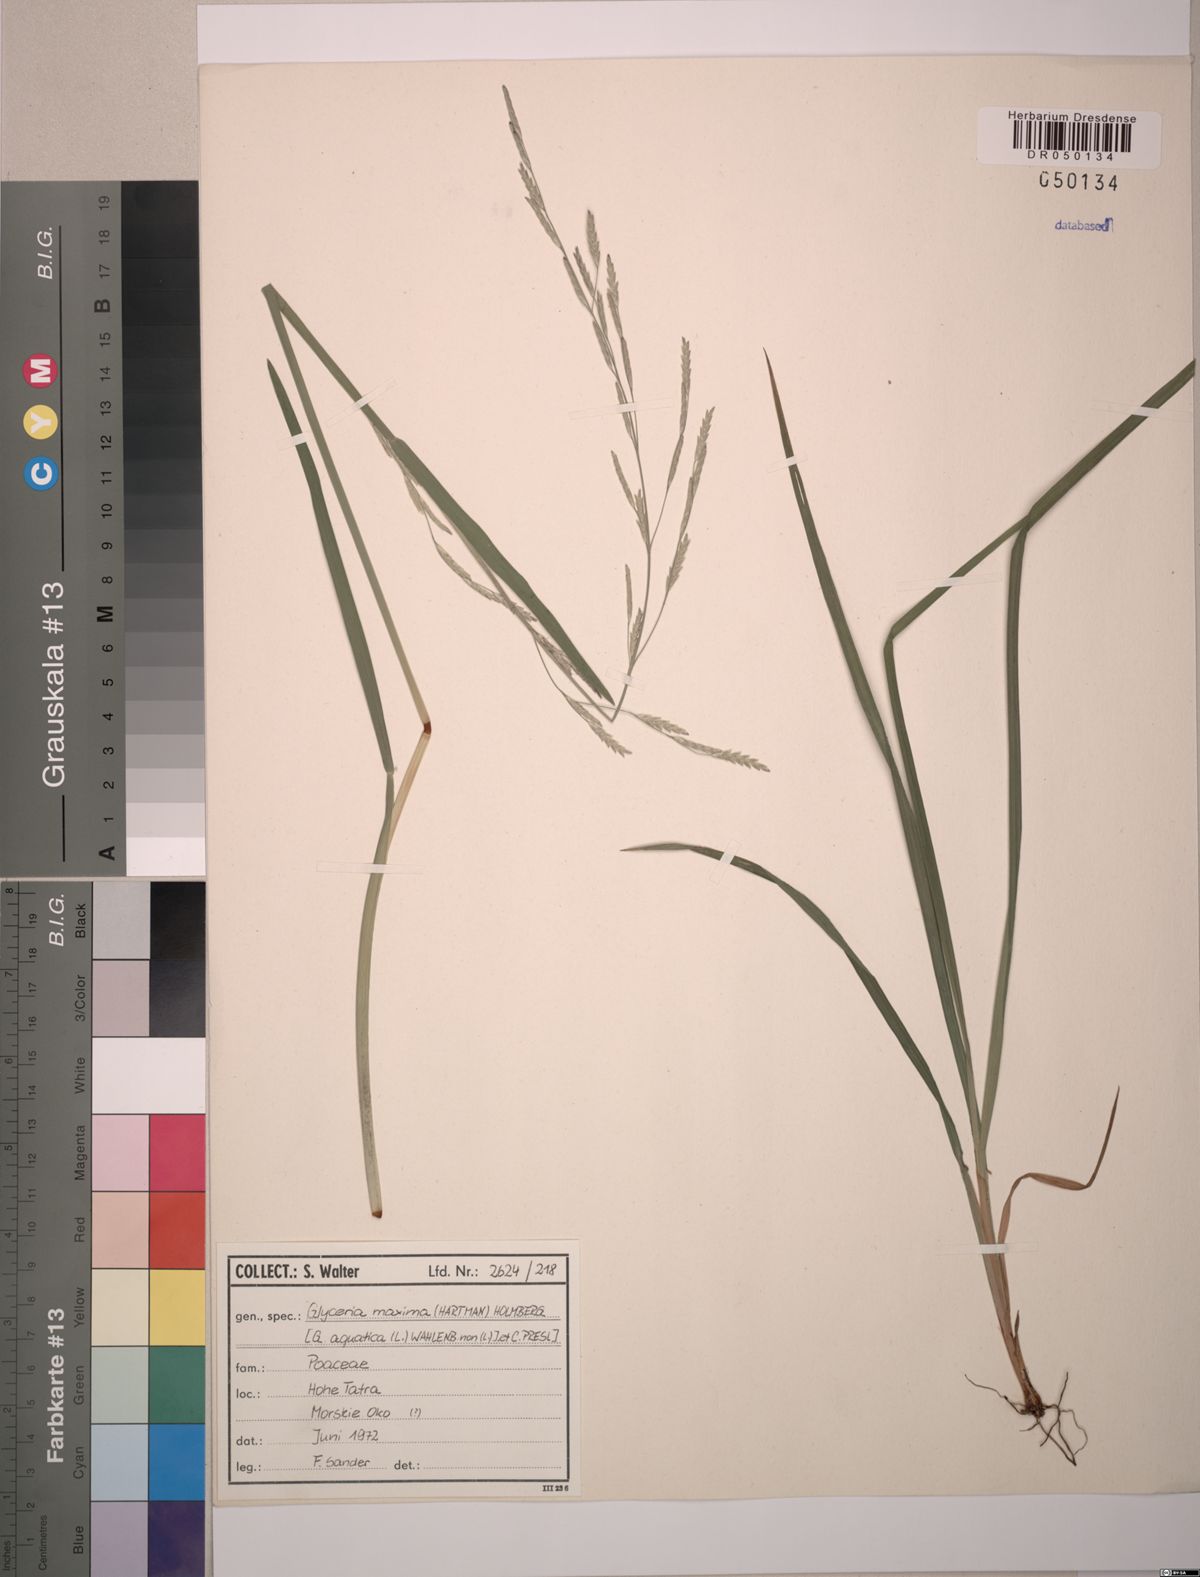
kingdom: Plantae
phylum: Tracheophyta
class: Liliopsida
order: Poales
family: Poaceae
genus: Glyceria
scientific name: Glyceria maxima
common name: Reed mannagrass
